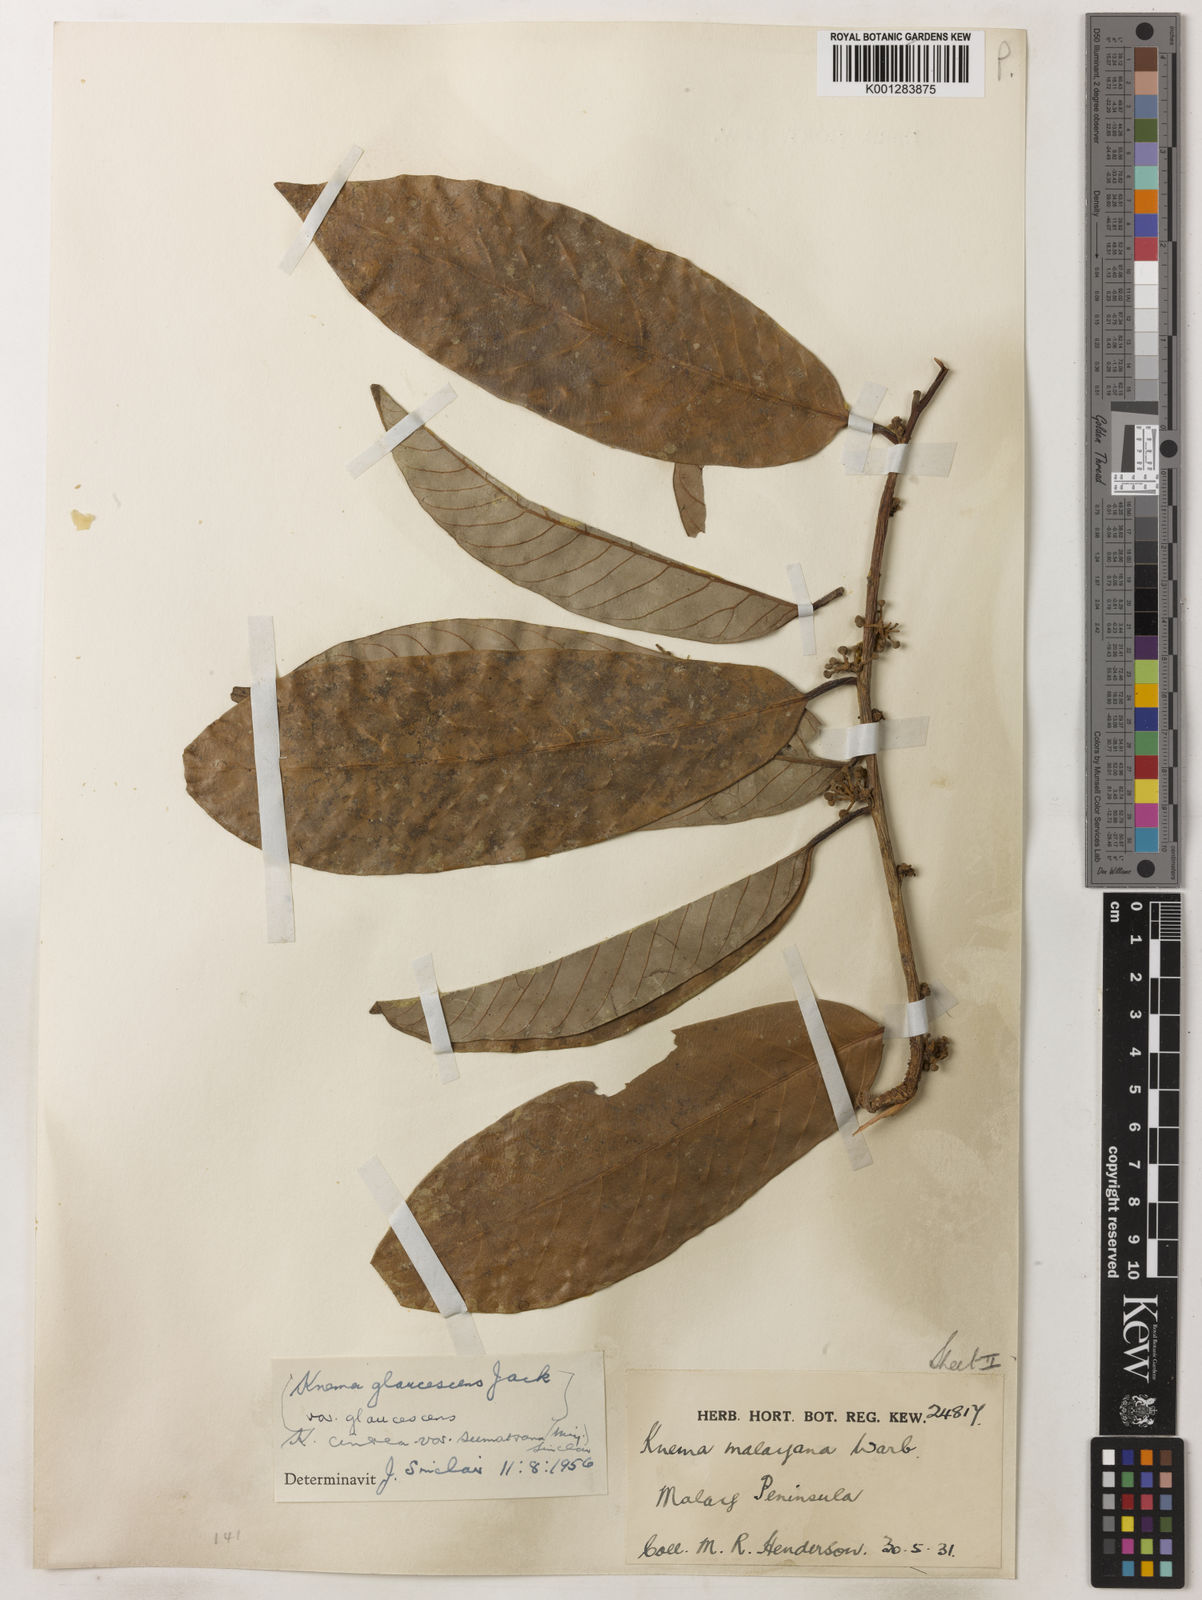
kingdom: Plantae
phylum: Tracheophyta
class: Magnoliopsida
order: Magnoliales
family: Myristicaceae
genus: Knema
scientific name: Knema
